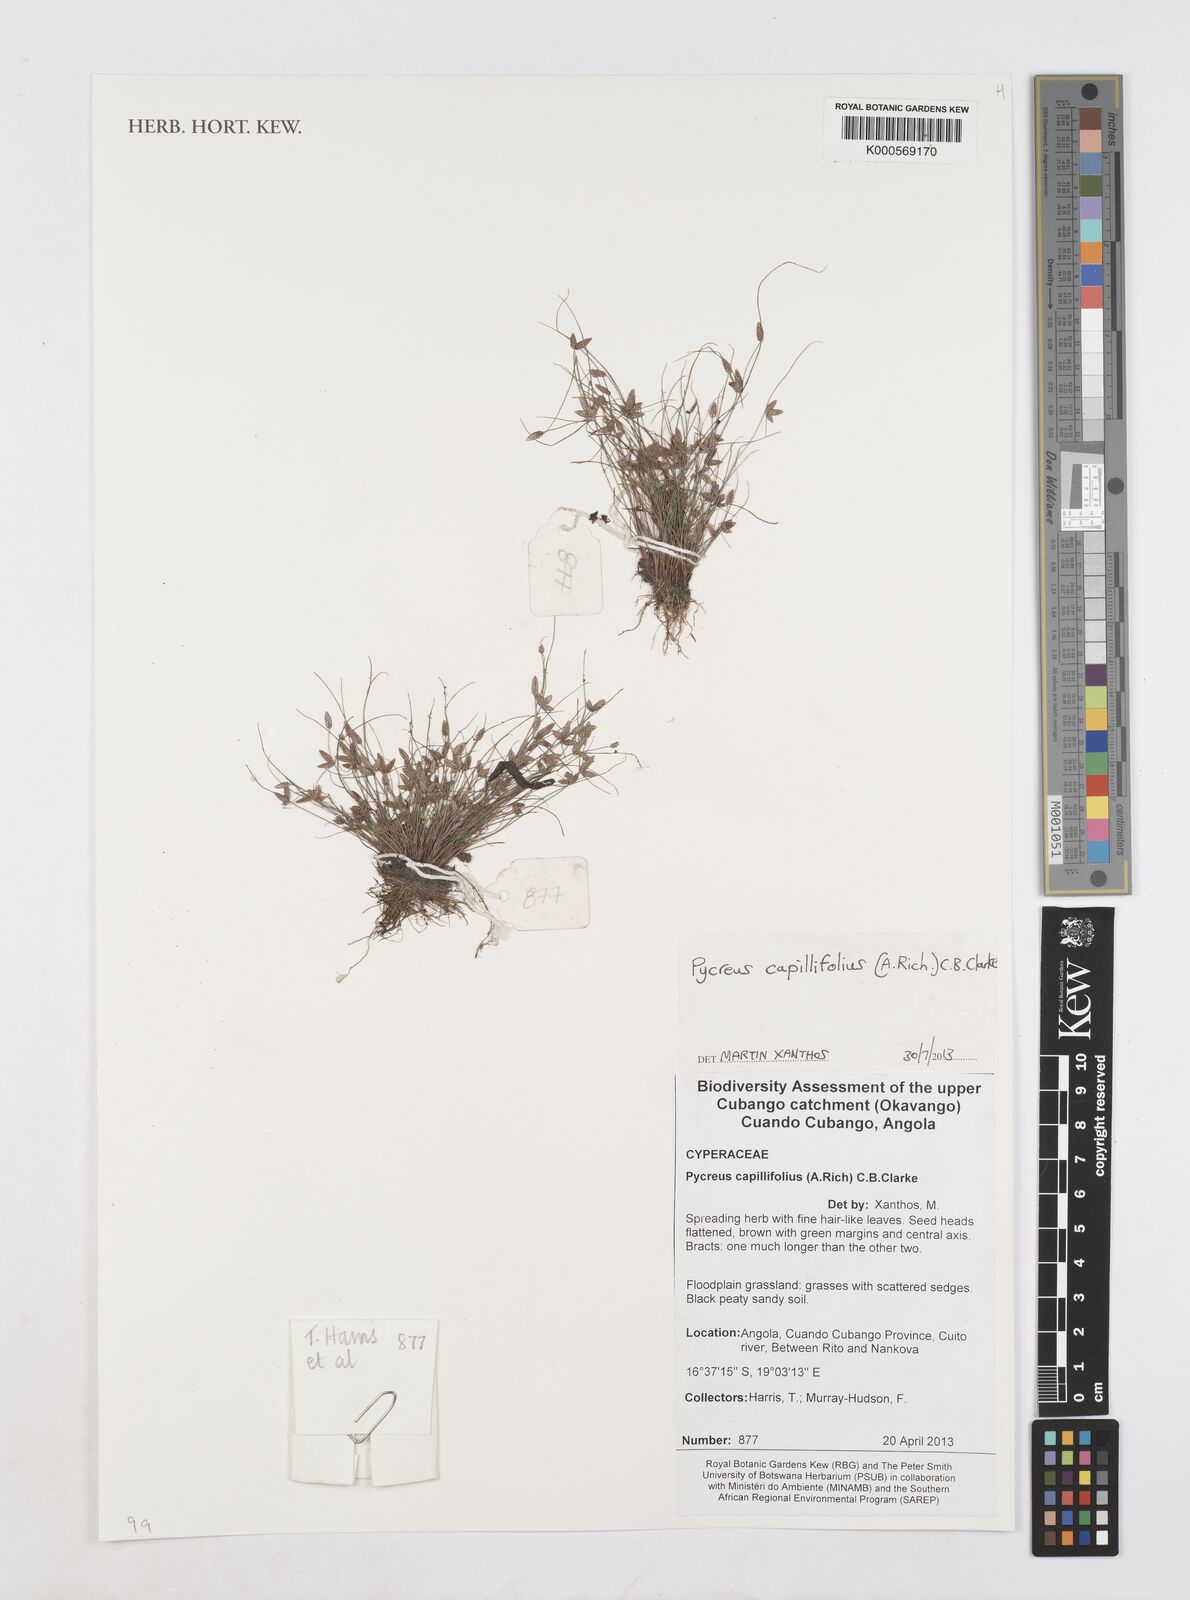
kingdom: Plantae
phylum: Tracheophyta
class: Liliopsida
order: Poales
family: Cyperaceae
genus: Cyperus
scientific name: Cyperus capillifolius
